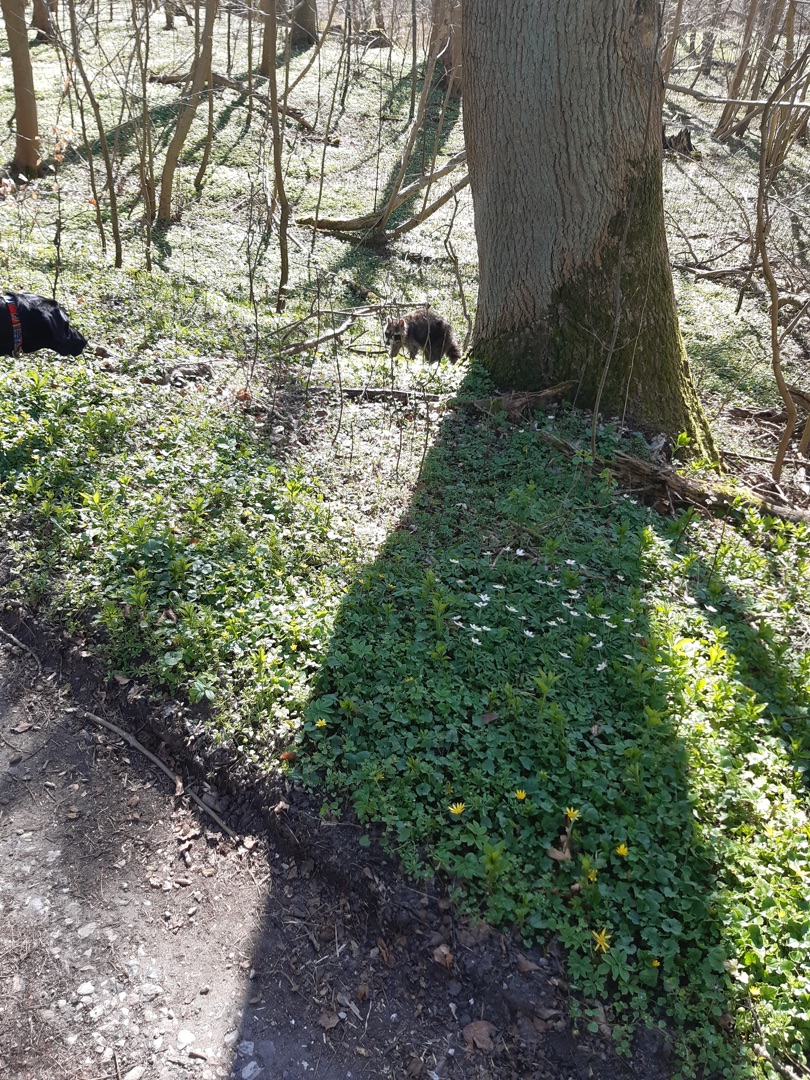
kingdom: Animalia
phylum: Chordata
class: Mammalia
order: Carnivora
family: Procyonidae
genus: Procyon
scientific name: Procyon lotor
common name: Vaskebjørn
